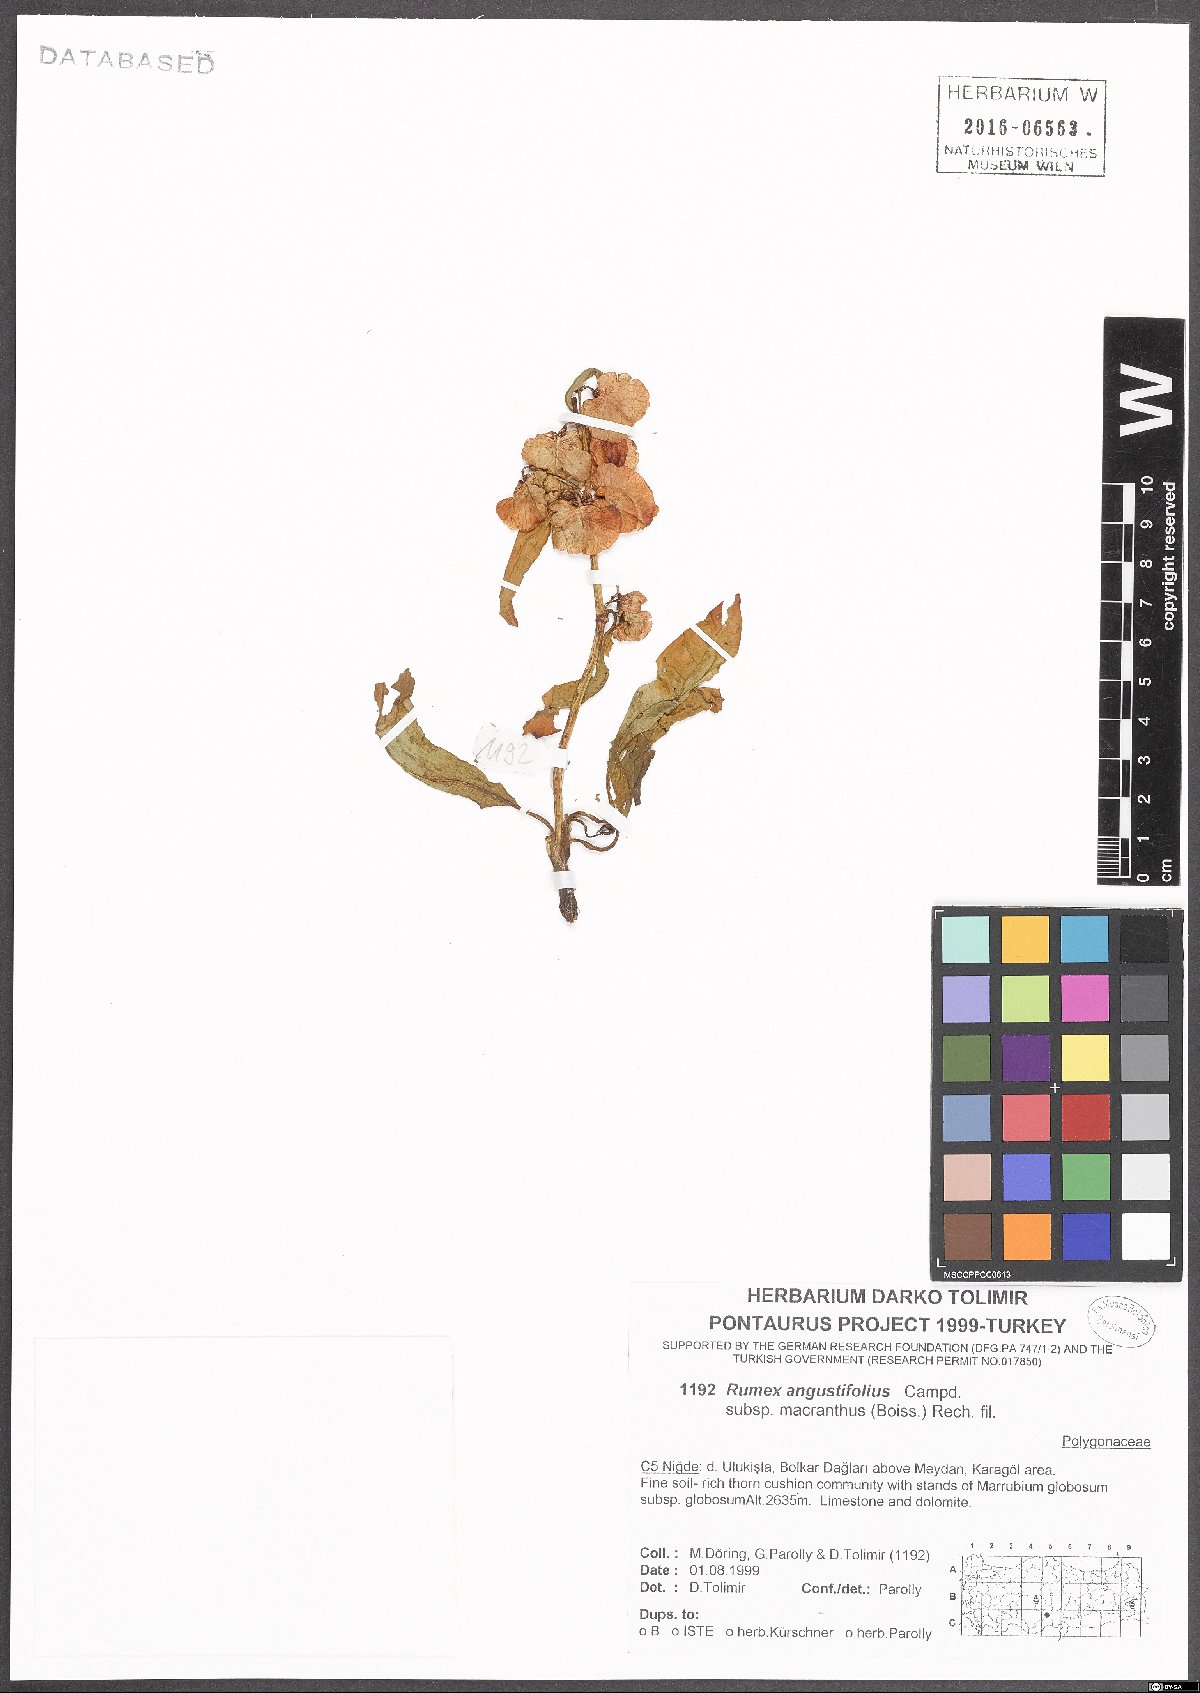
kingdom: Plantae
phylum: Tracheophyta
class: Magnoliopsida
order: Caryophyllales
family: Polygonaceae
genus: Rumex
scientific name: Rumex angustifolius
